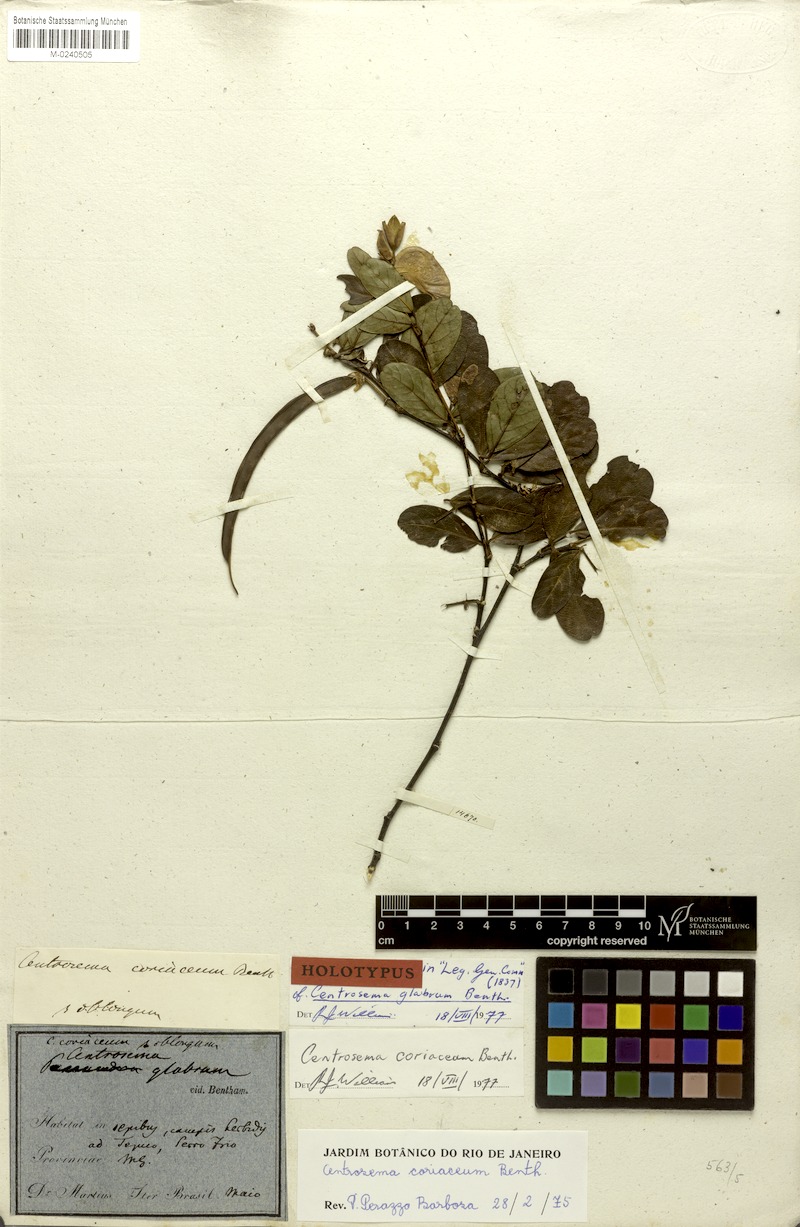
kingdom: Plantae
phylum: Tracheophyta
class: Magnoliopsida
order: Fabales
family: Fabaceae
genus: Centrosema
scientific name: Centrosema coriaceum
